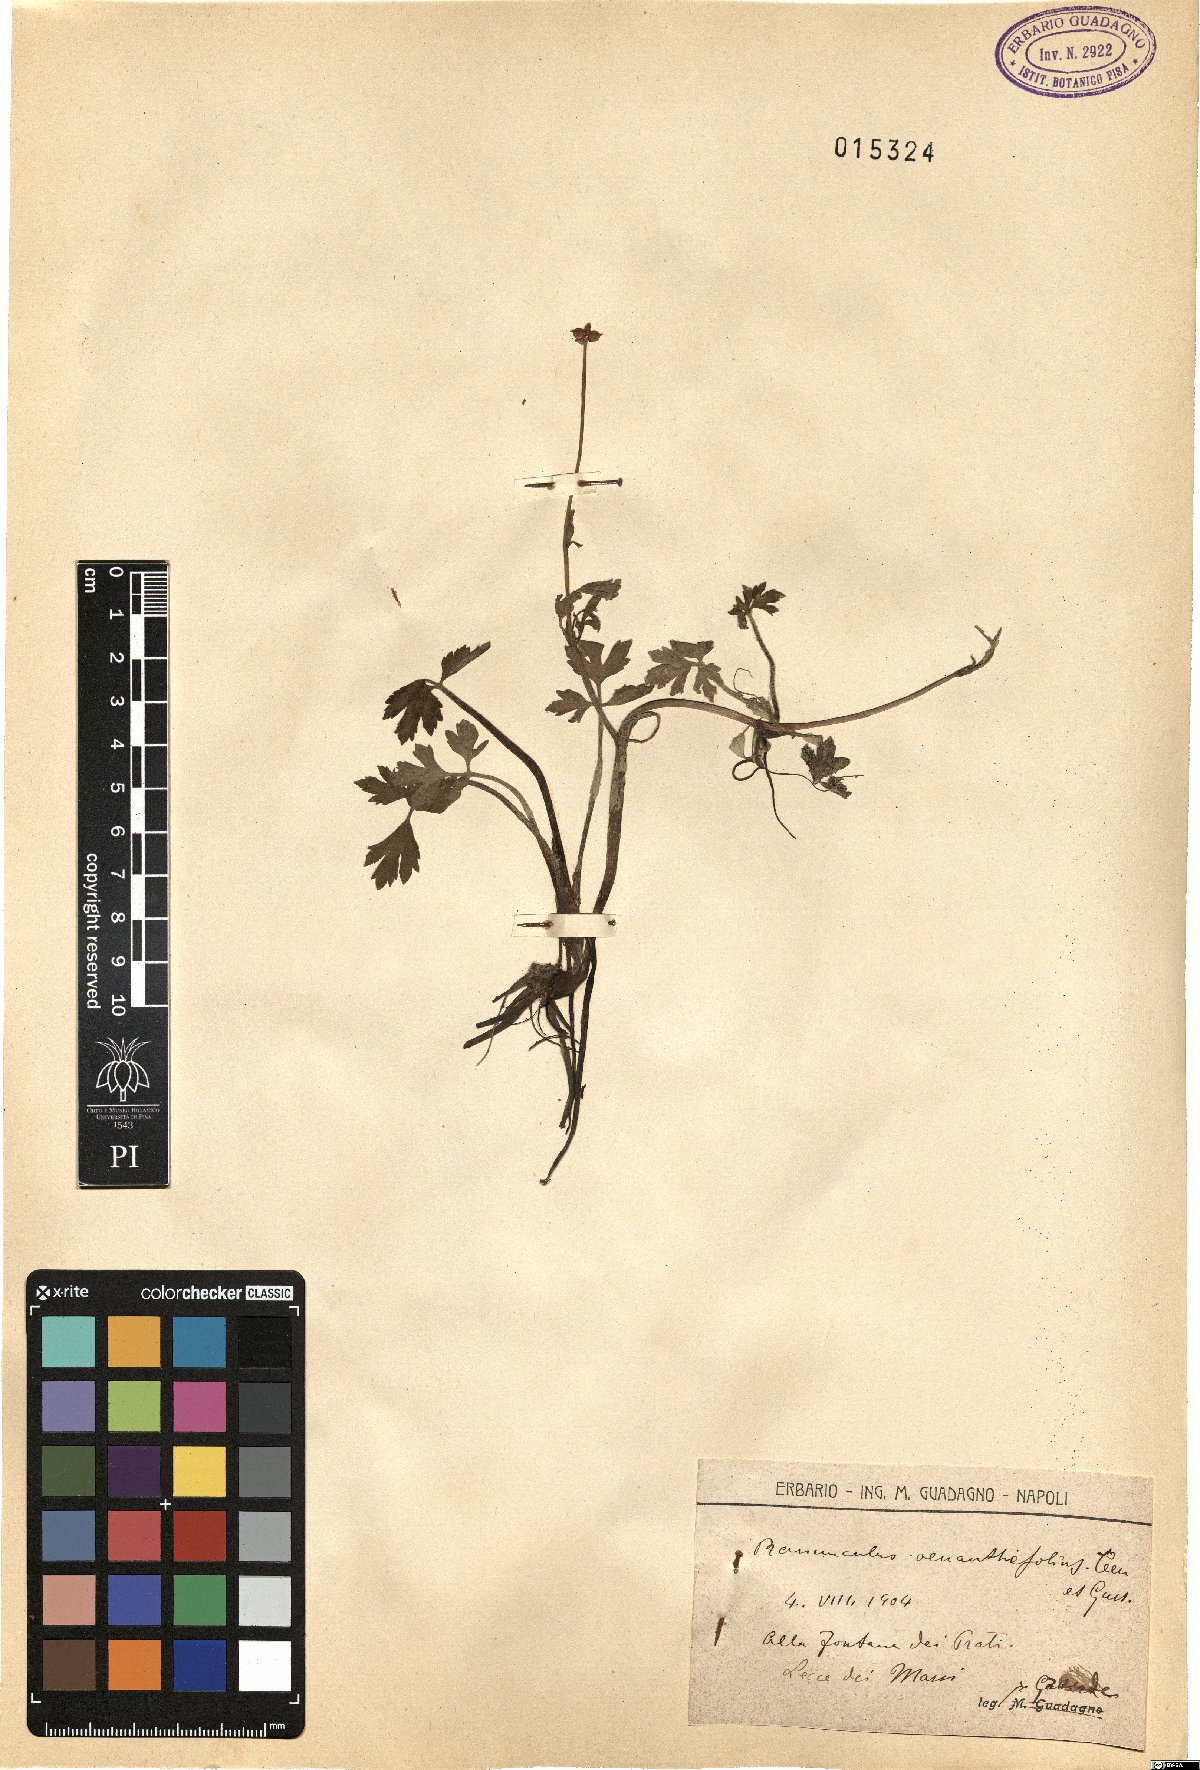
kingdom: Plantae
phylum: Tracheophyta
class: Magnoliopsida
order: Ranunculales
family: Ranunculaceae
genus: Ranunculus
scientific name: Ranunculus repens
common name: Creeping buttercup
